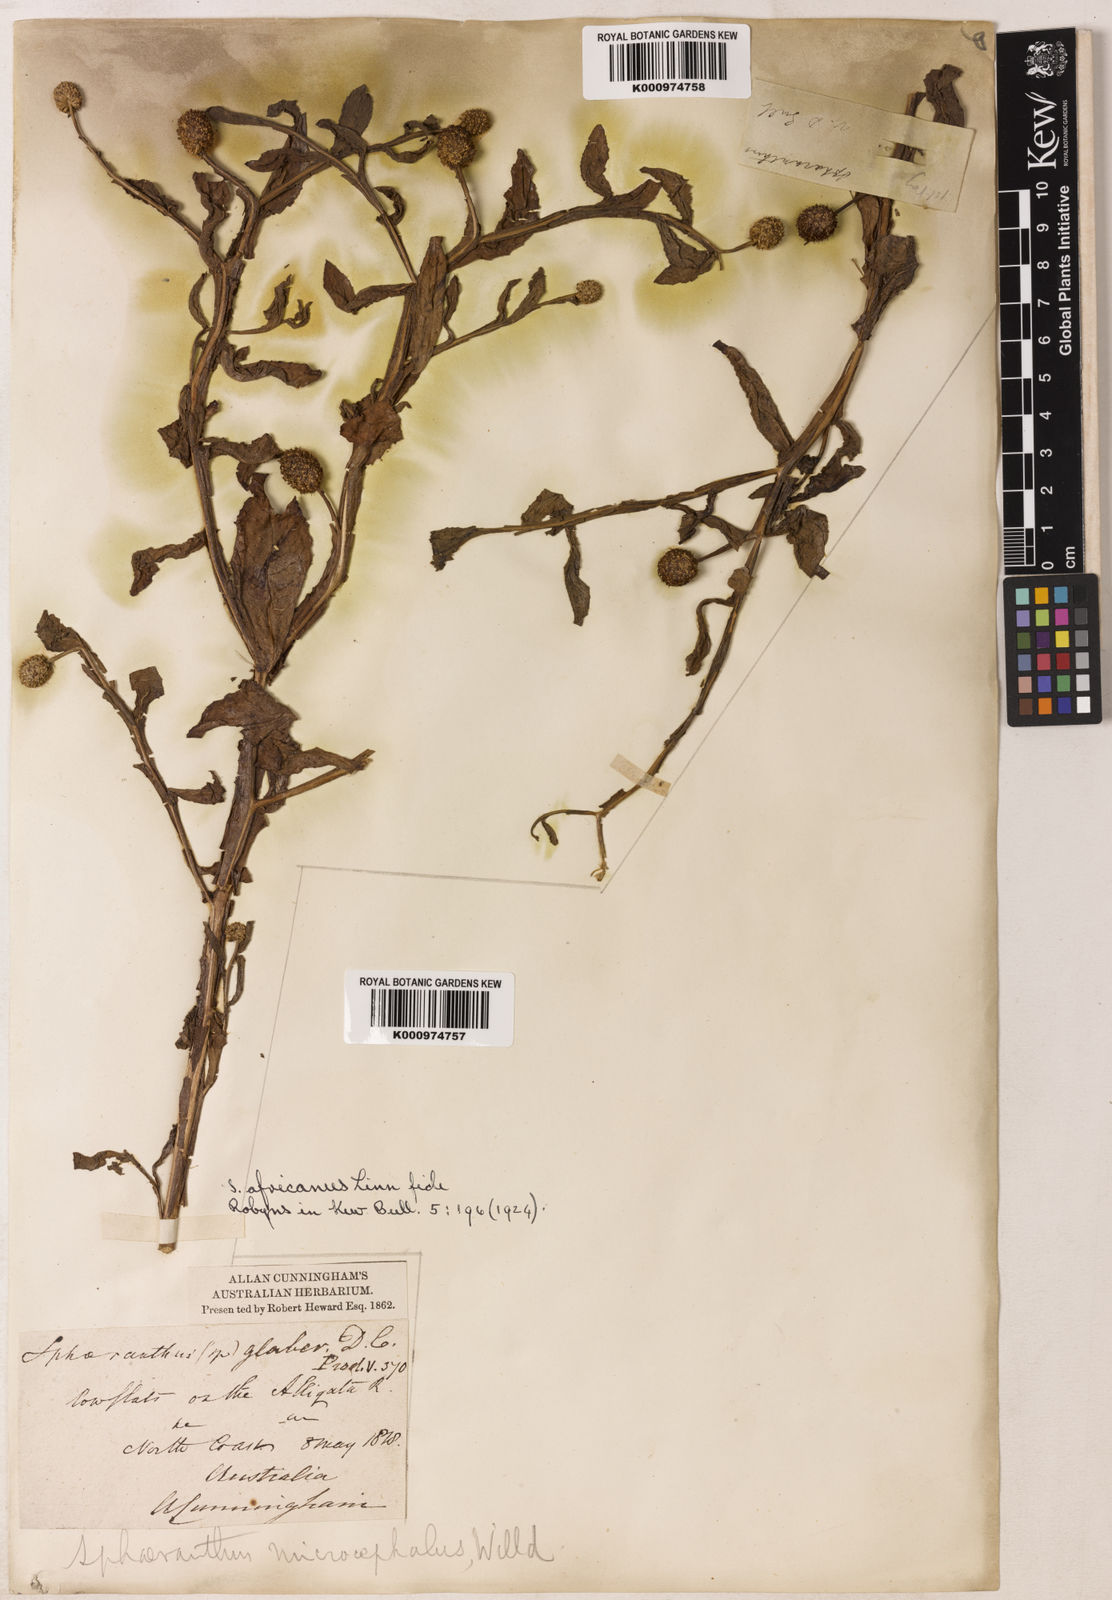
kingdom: Plantae
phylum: Tracheophyta
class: Magnoliopsida
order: Asterales
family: Asteraceae
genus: Sphaeranthus
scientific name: Sphaeranthus africanus
